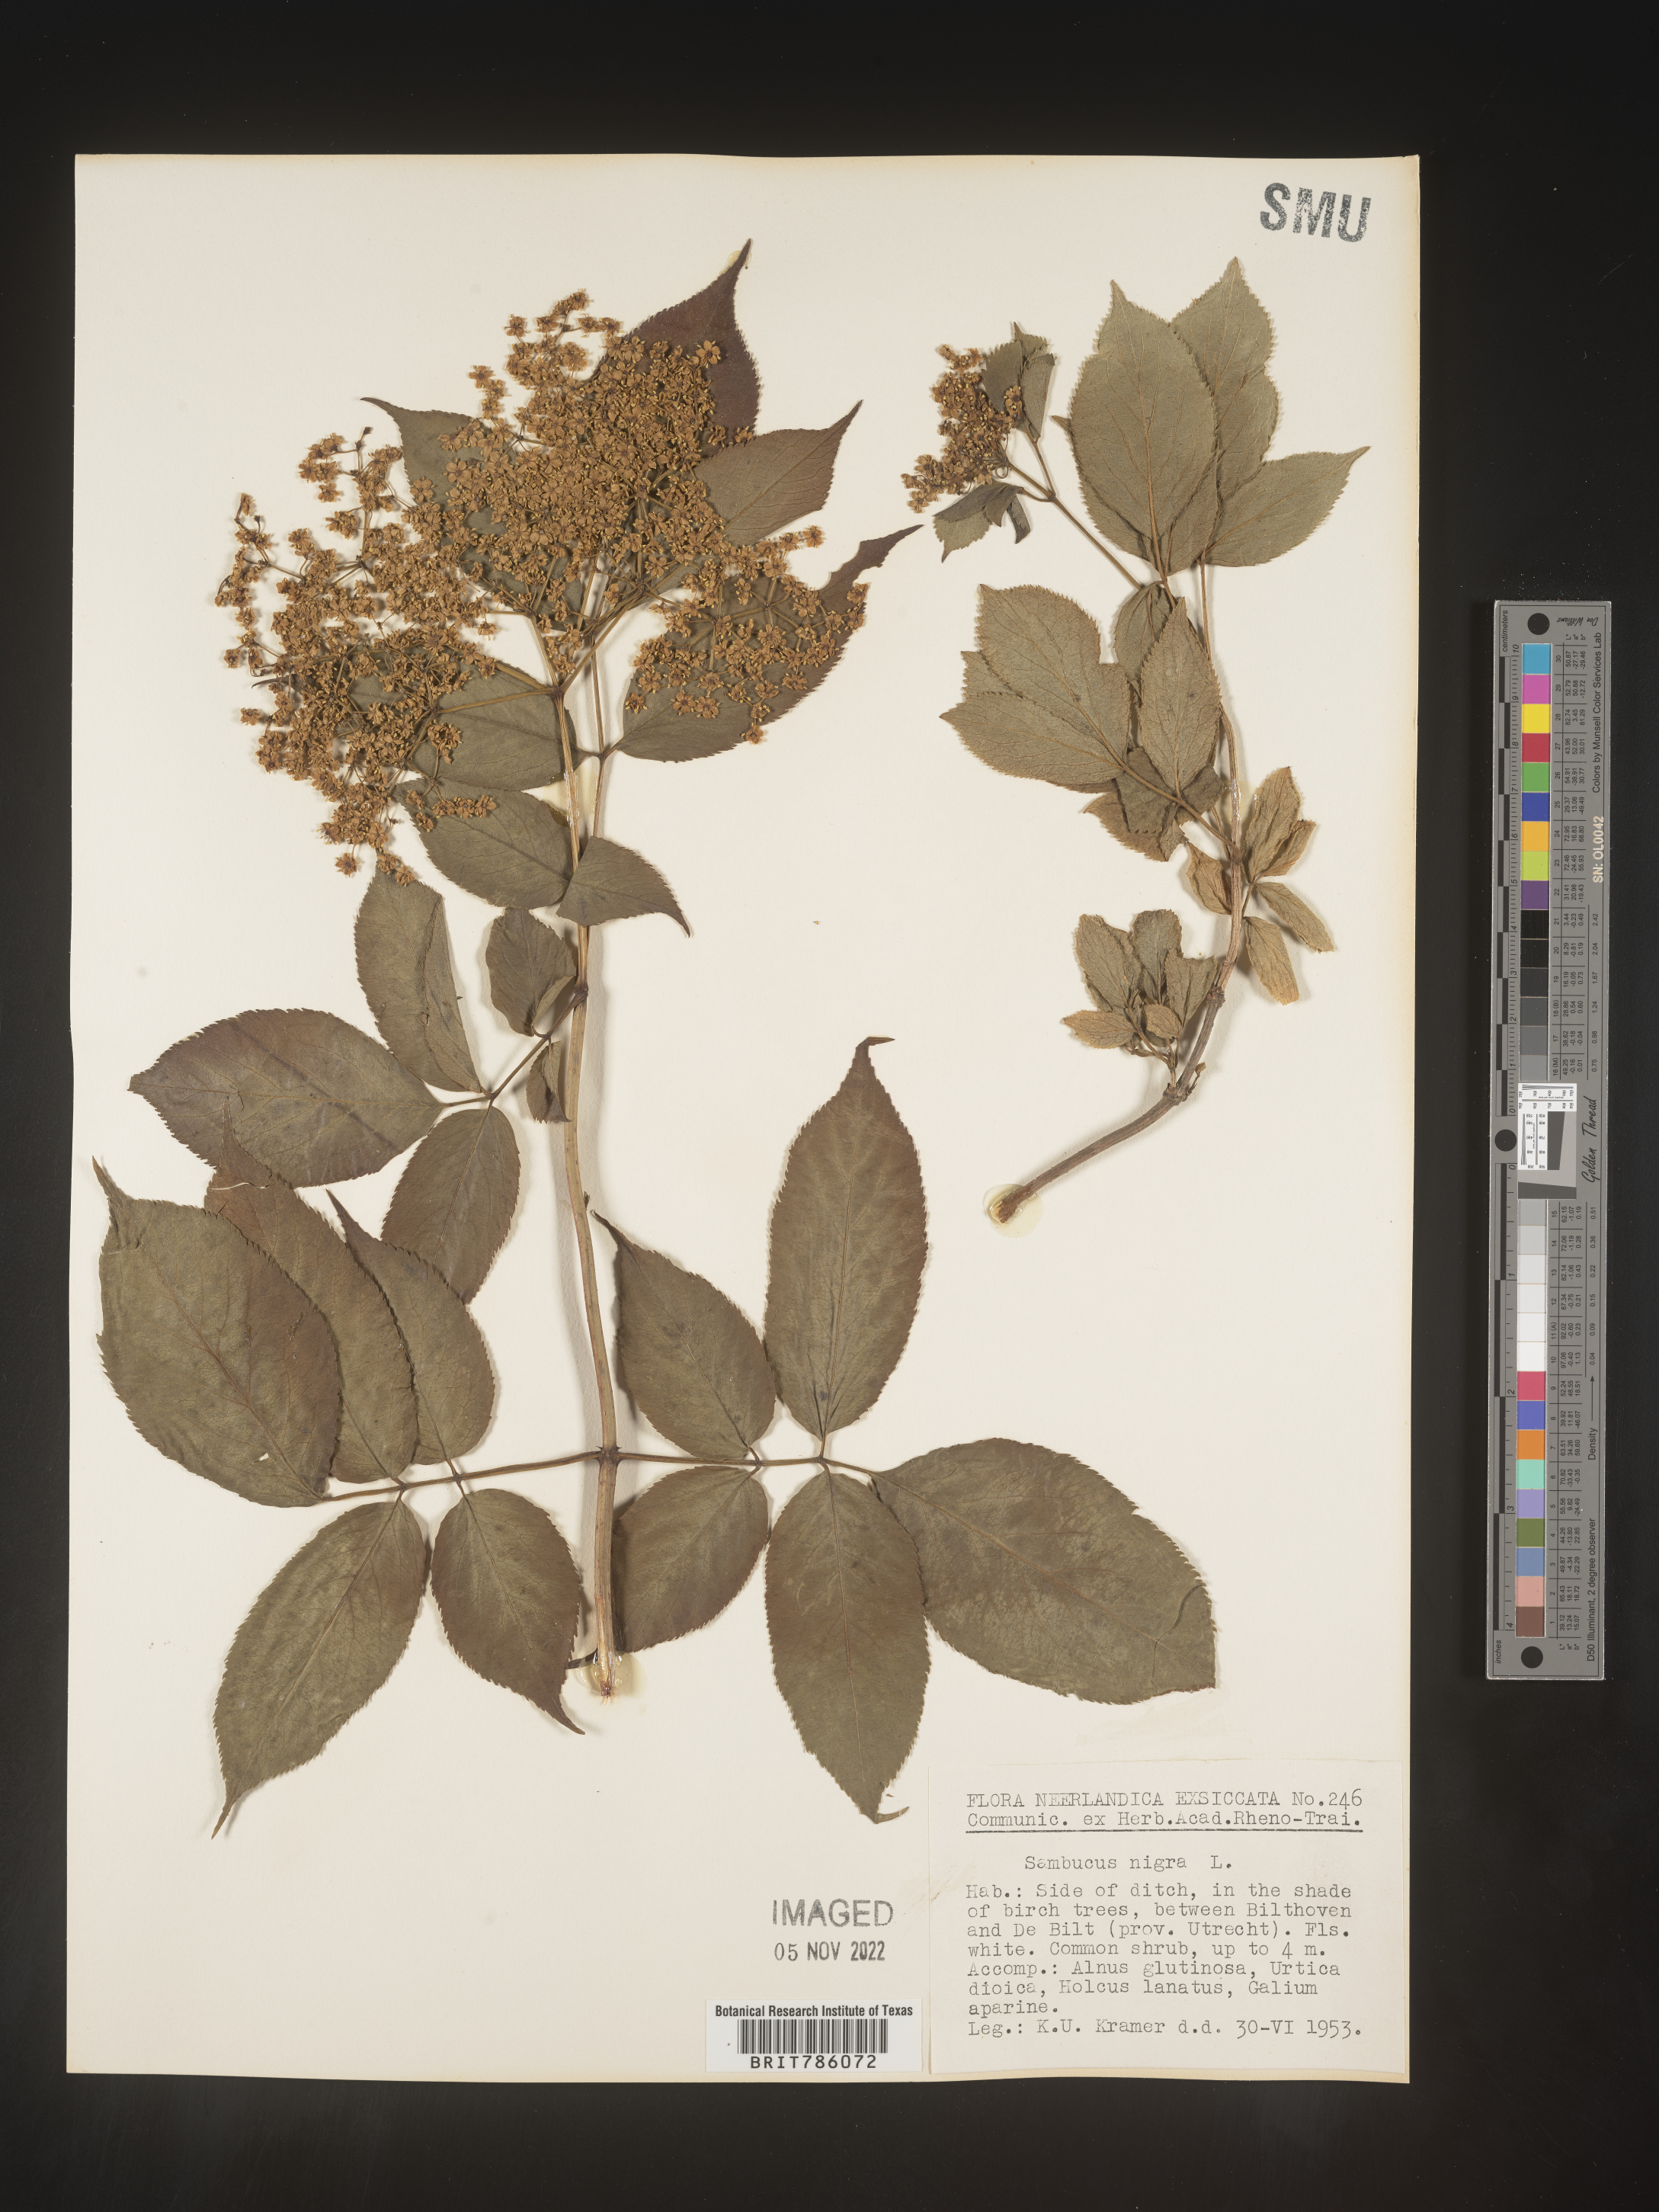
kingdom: Plantae
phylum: Tracheophyta
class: Magnoliopsida
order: Dipsacales
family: Viburnaceae
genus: Sambucus
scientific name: Sambucus
